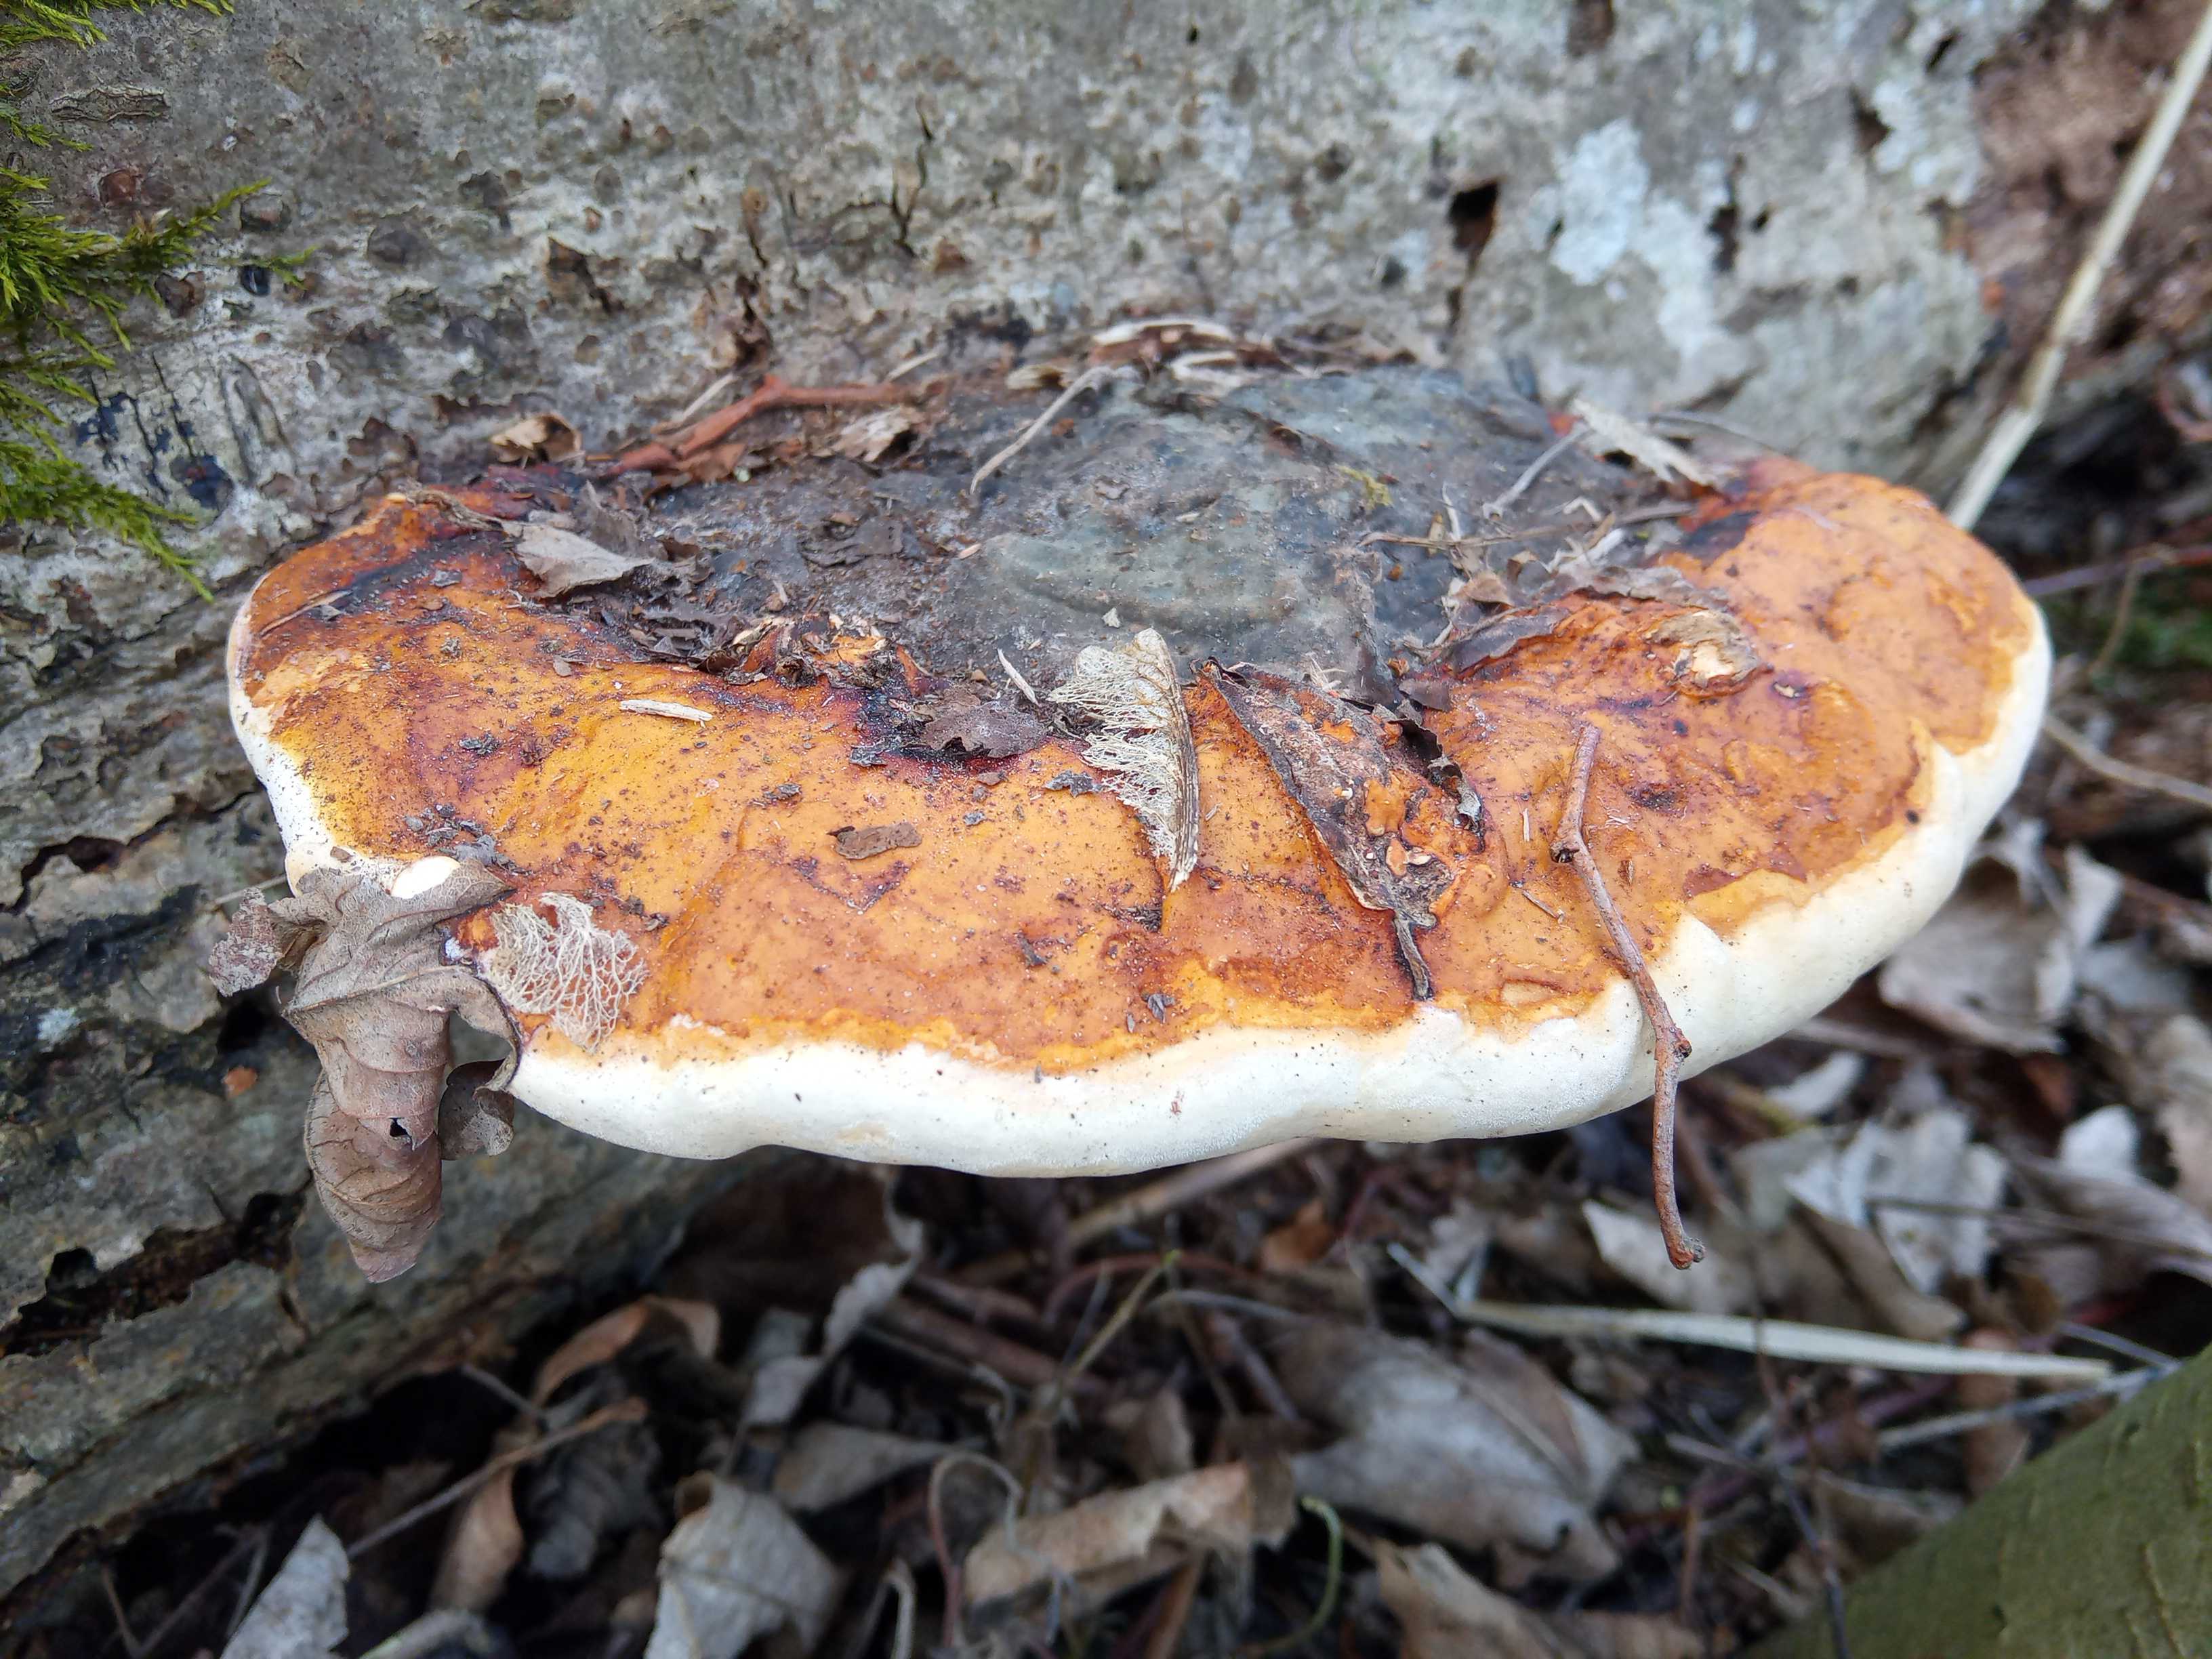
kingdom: Fungi
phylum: Basidiomycota
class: Agaricomycetes
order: Polyporales
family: Fomitopsidaceae
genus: Fomitopsis
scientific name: Fomitopsis pinicola
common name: randbæltet hovporesvamp
